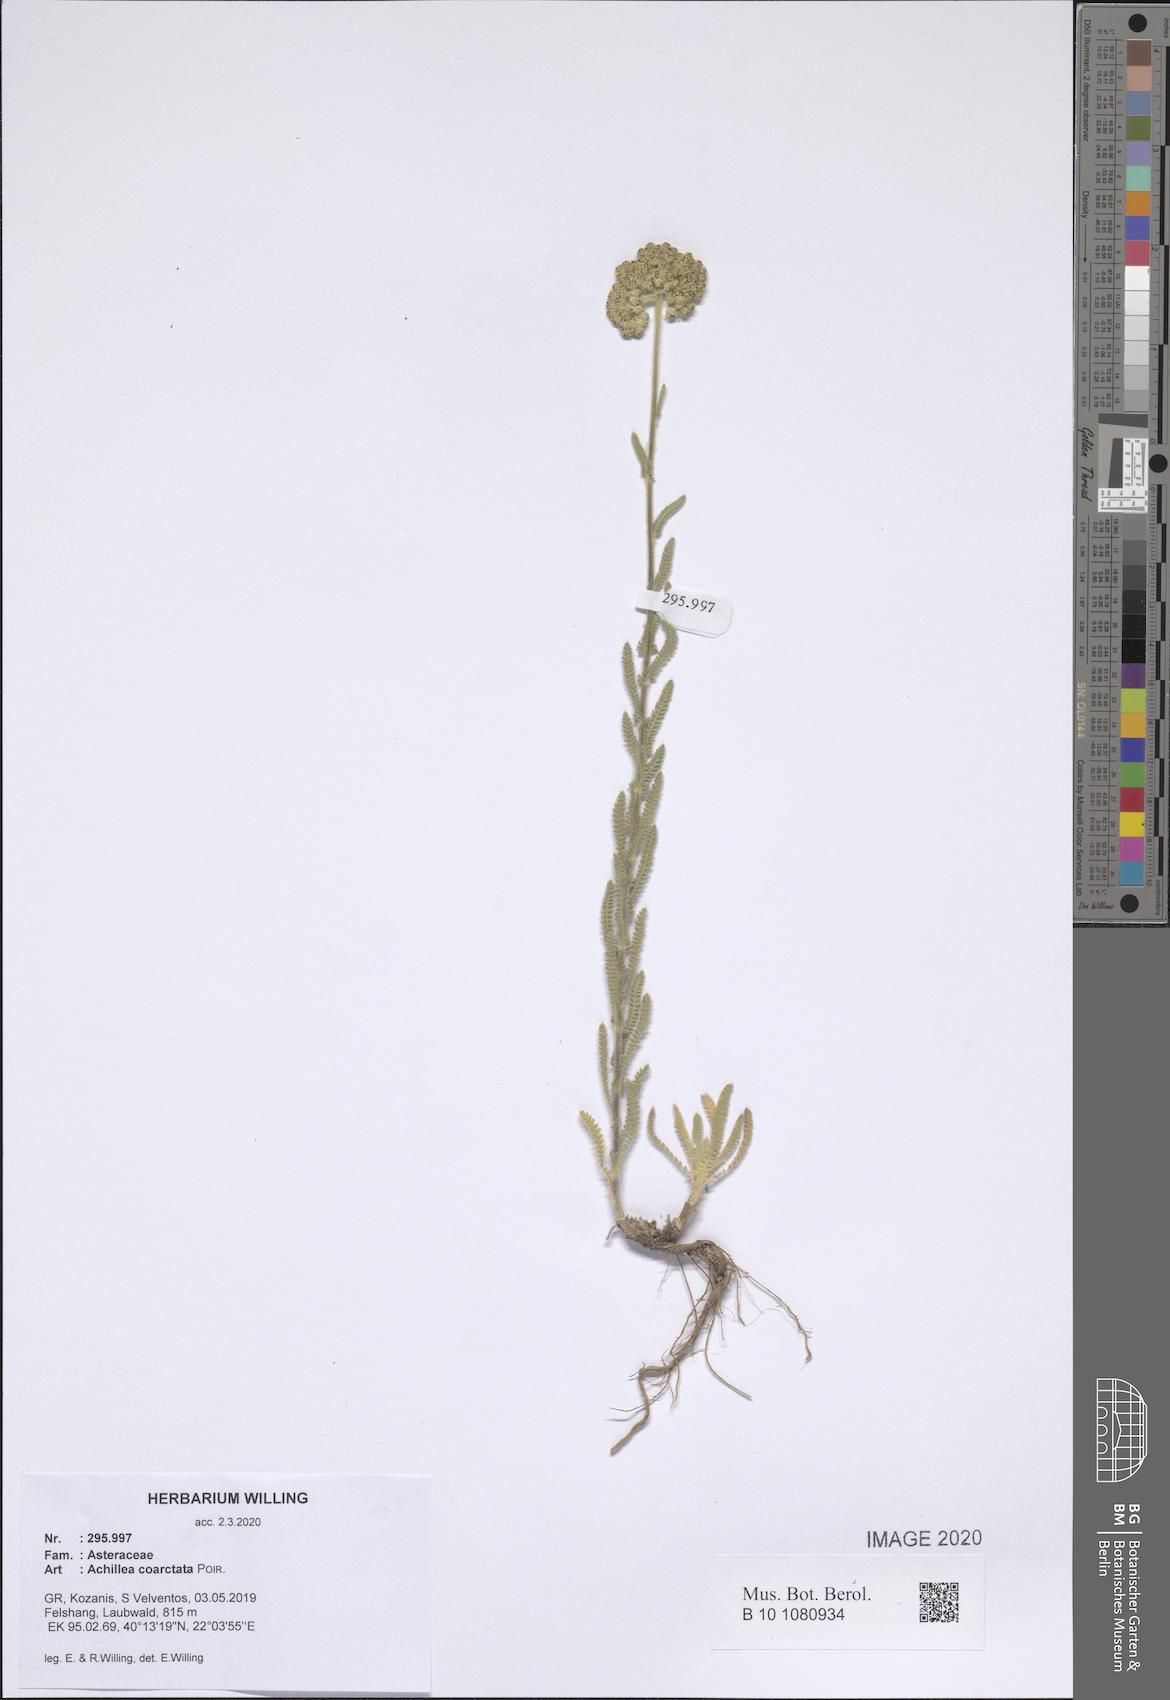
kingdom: Plantae
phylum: Tracheophyta
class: Magnoliopsida
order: Asterales
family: Asteraceae
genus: Achillea
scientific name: Achillea coarctata
